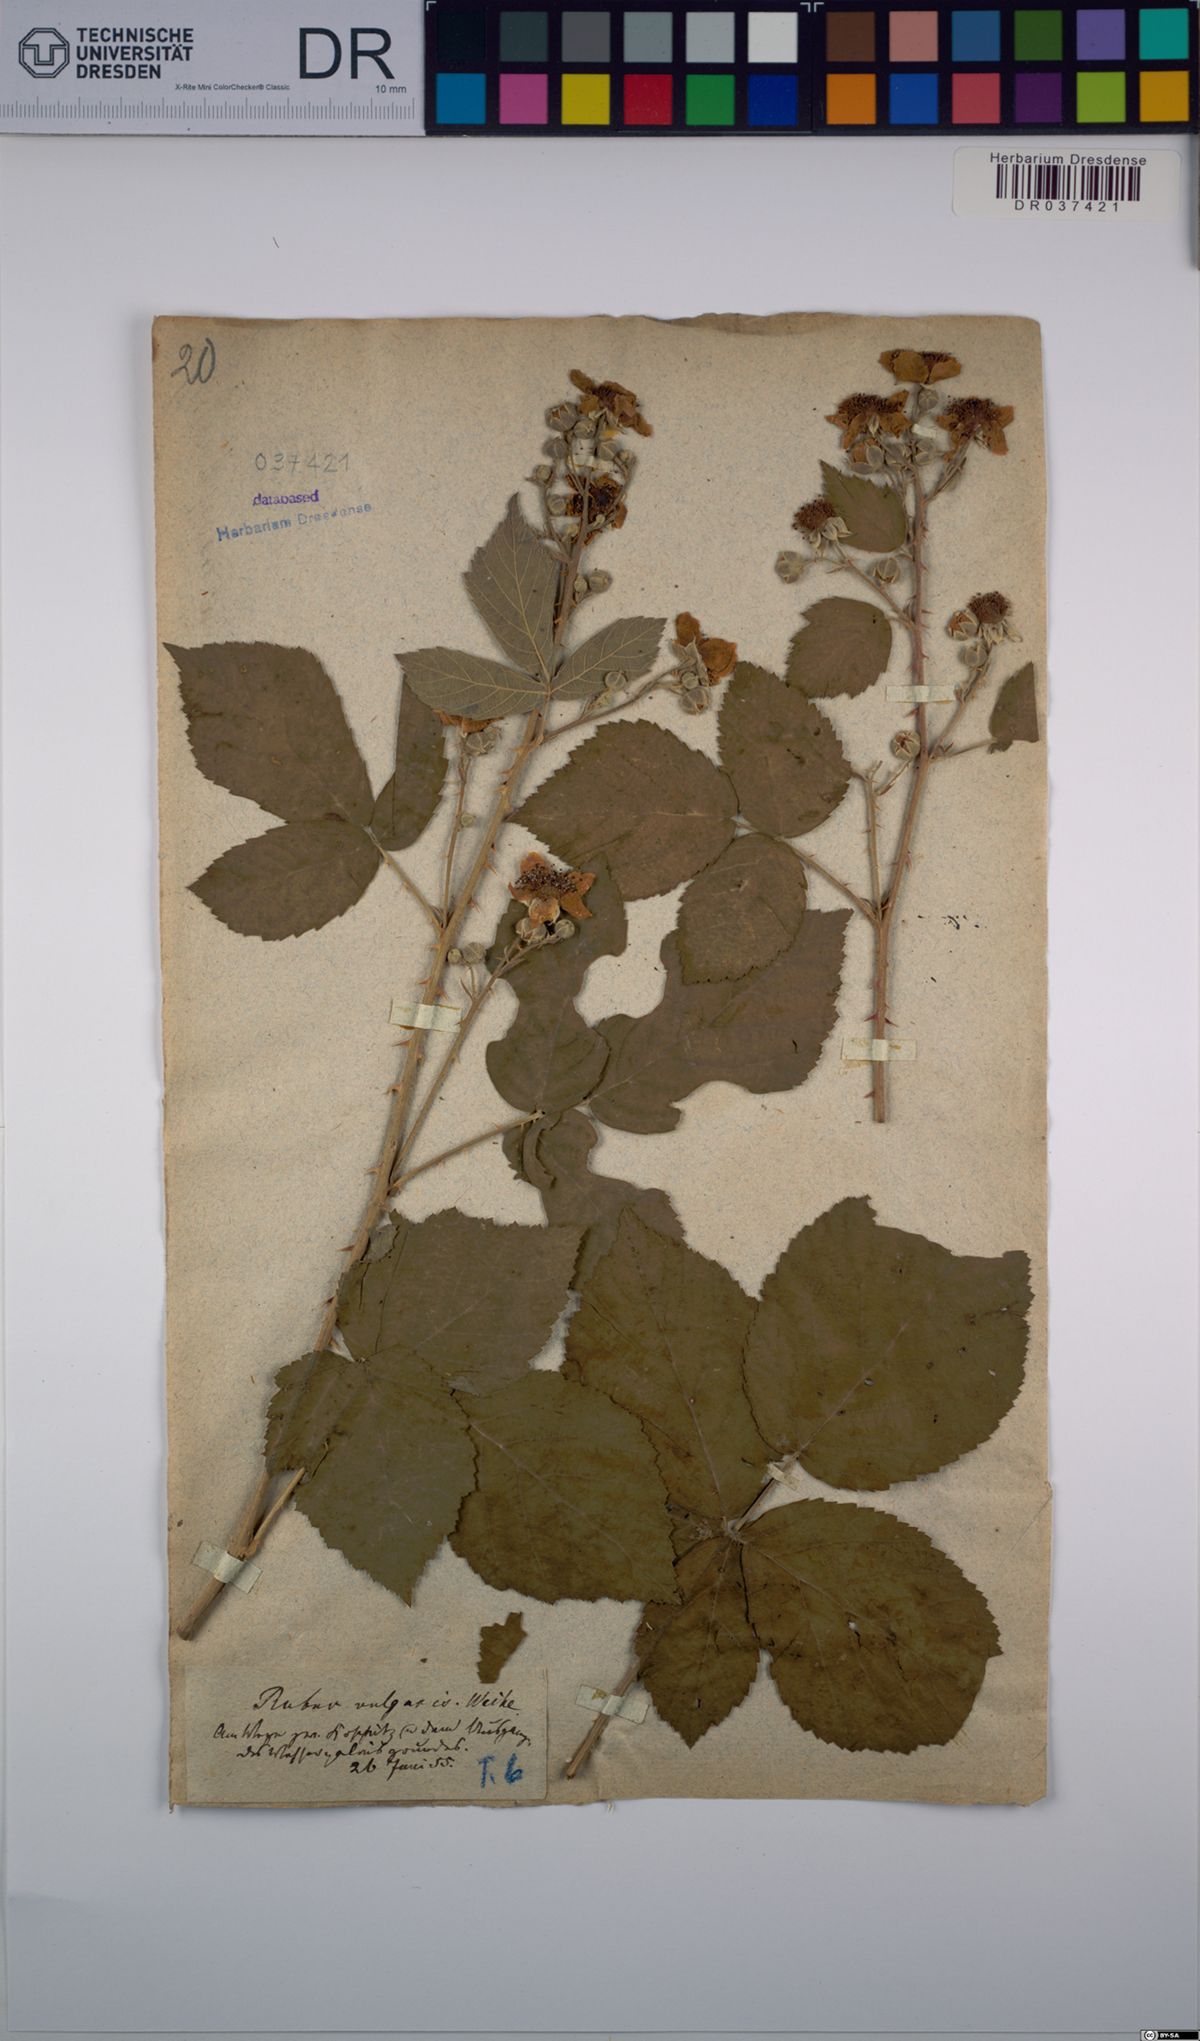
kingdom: Plantae
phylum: Tracheophyta
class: Magnoliopsida
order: Rosales
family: Rosaceae
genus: Rubus
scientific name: Rubus aschoffii
